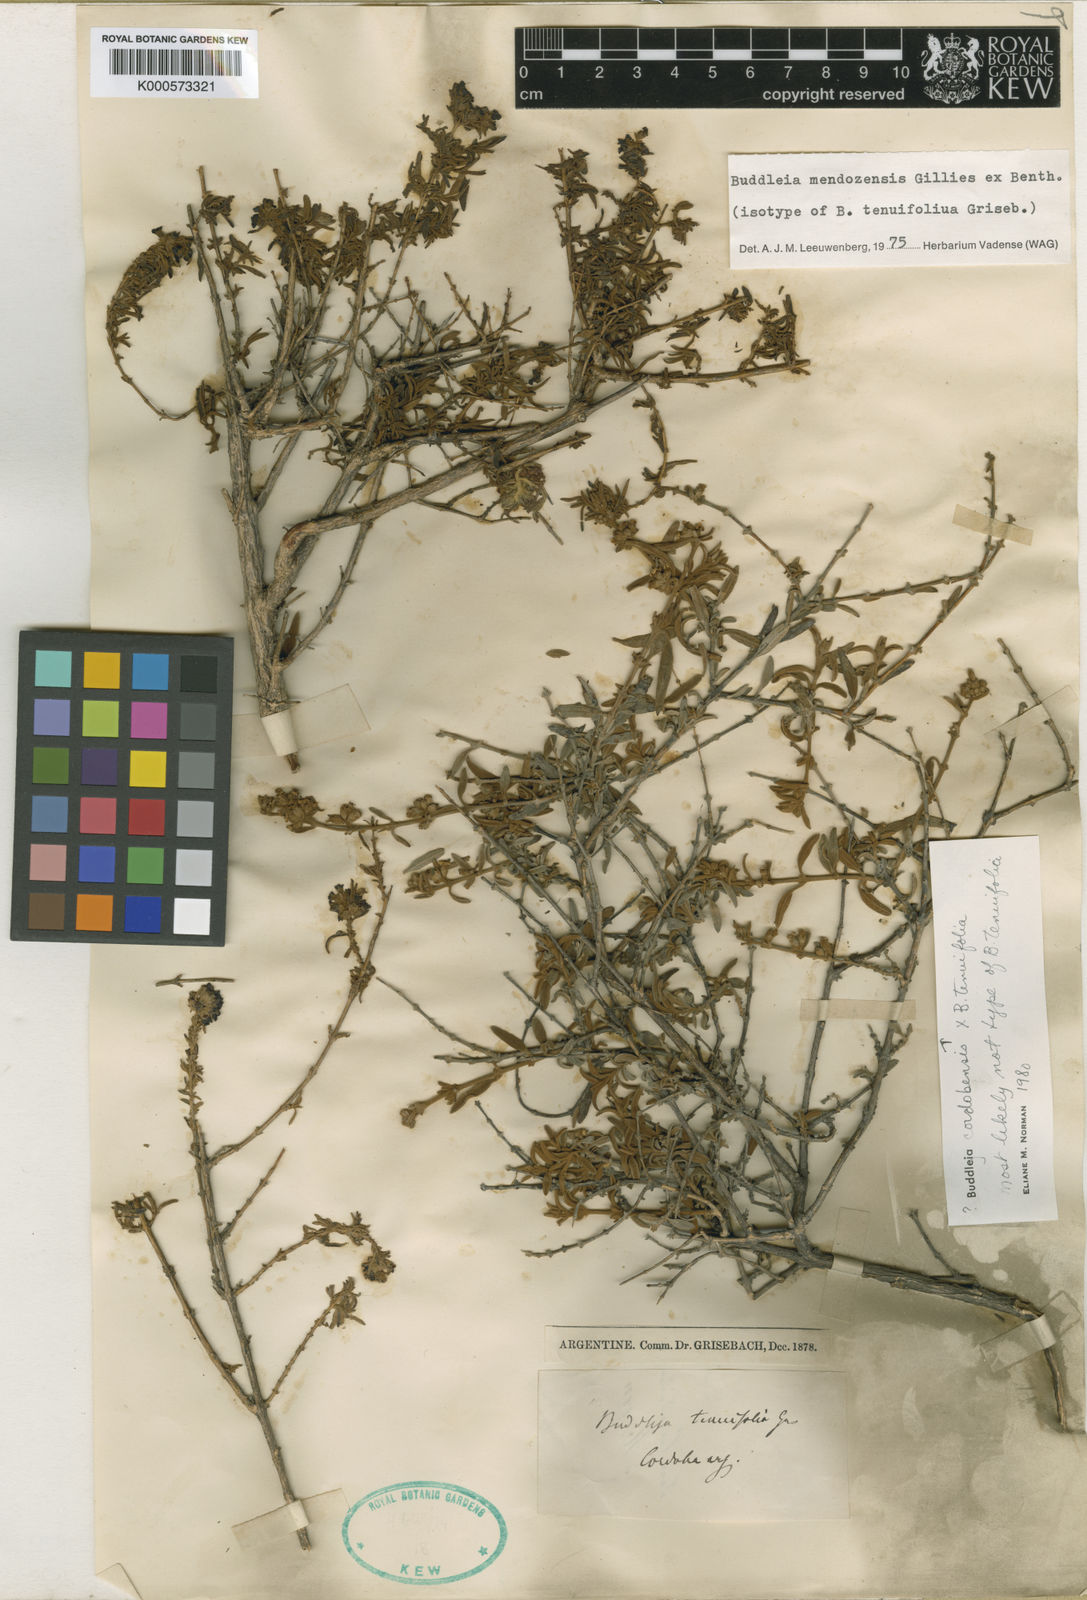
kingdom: Plantae
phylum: Tracheophyta
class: Magnoliopsida
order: Lamiales
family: Scrophulariaceae
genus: Buddleja
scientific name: Buddleja mendozensis
